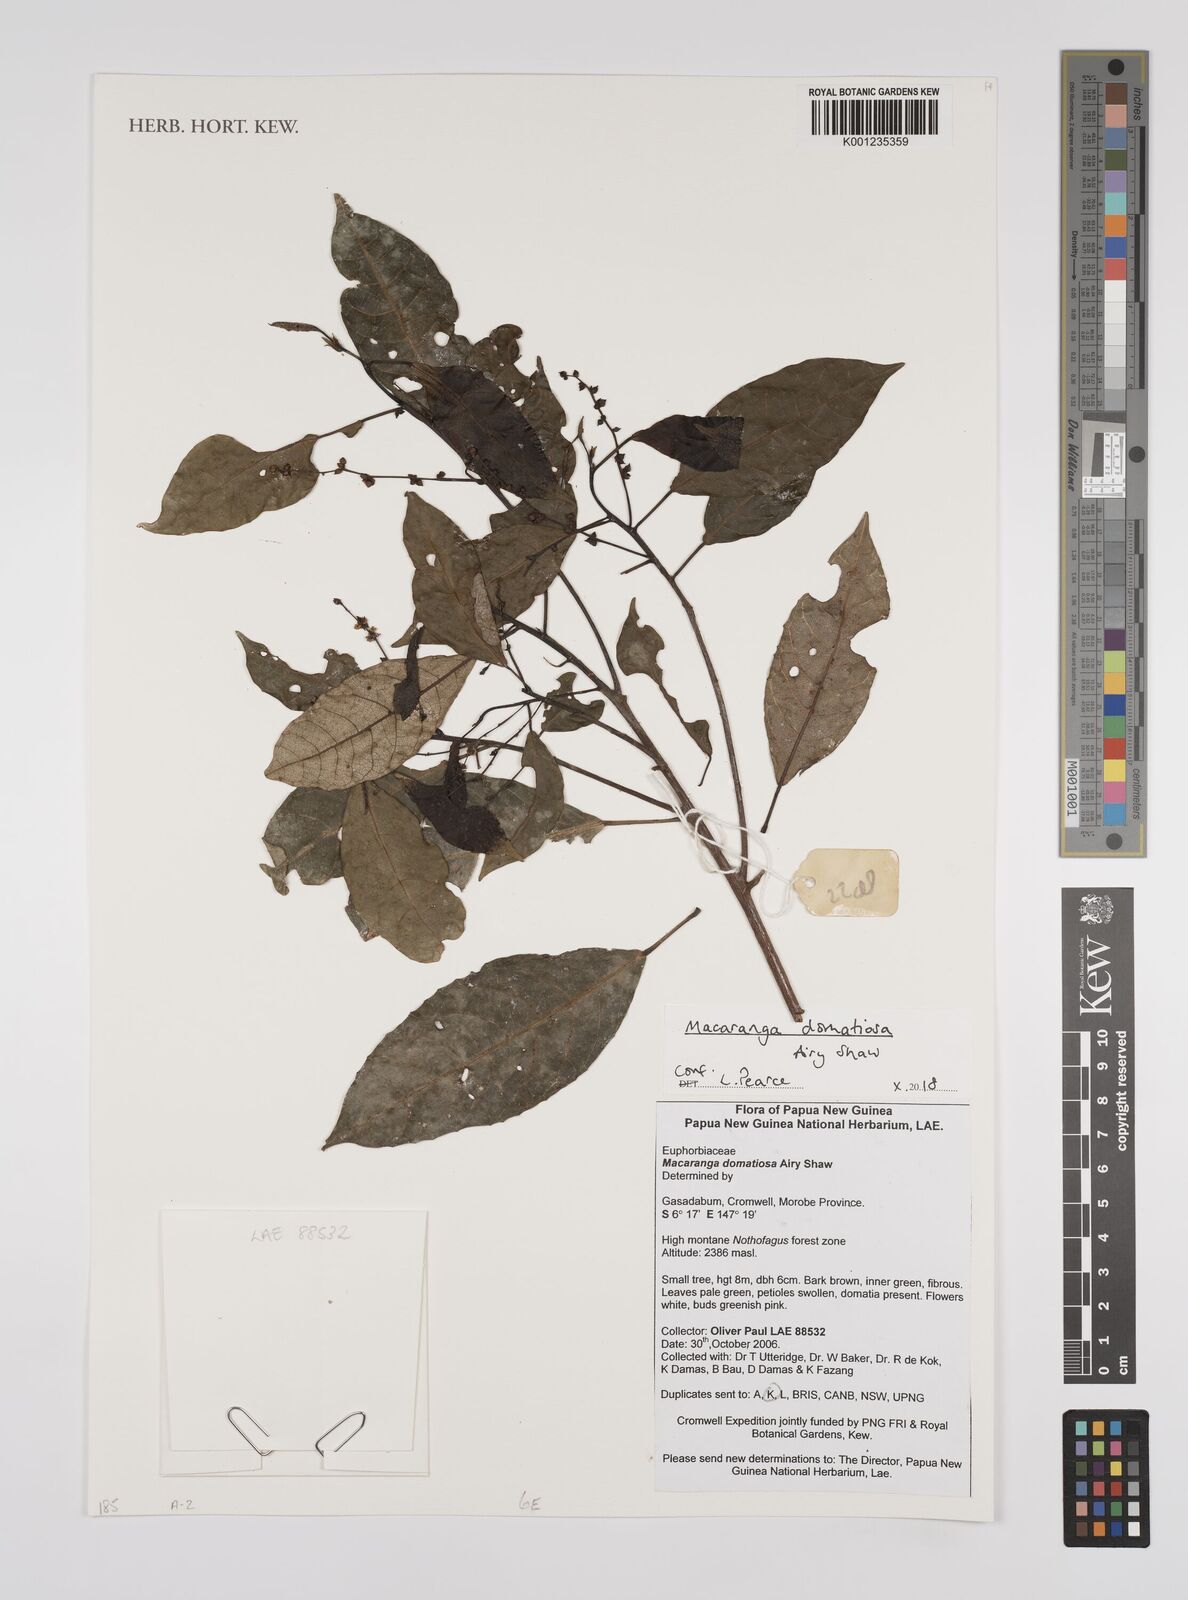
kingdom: Plantae
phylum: Tracheophyta
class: Magnoliopsida
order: Malpighiales
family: Euphorbiaceae
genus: Macaranga
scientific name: Macaranga domatiosa
